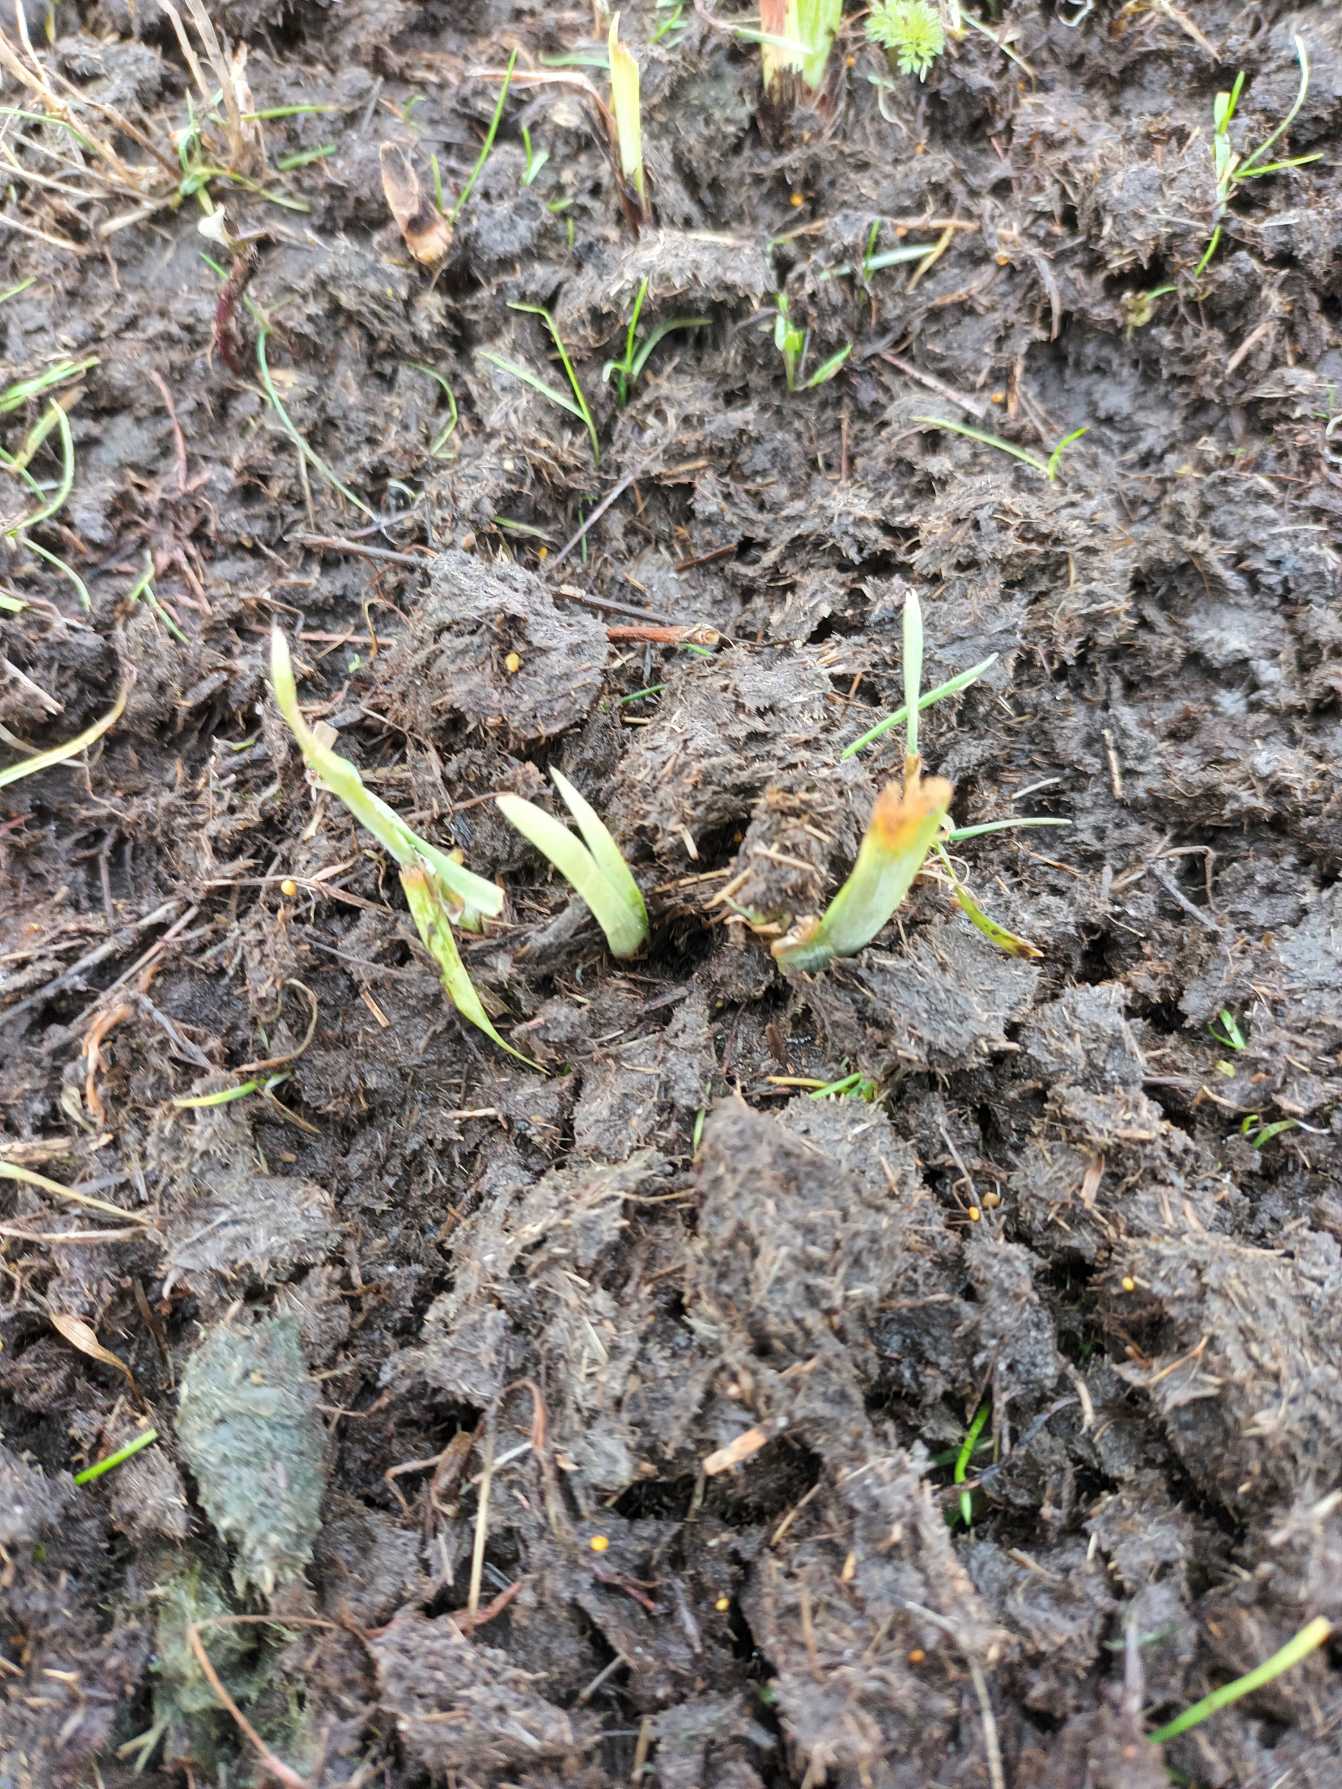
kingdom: Plantae
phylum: Tracheophyta
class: Liliopsida
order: Asparagales
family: Iridaceae
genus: Iris
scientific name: Iris spuria
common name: Blå iris
